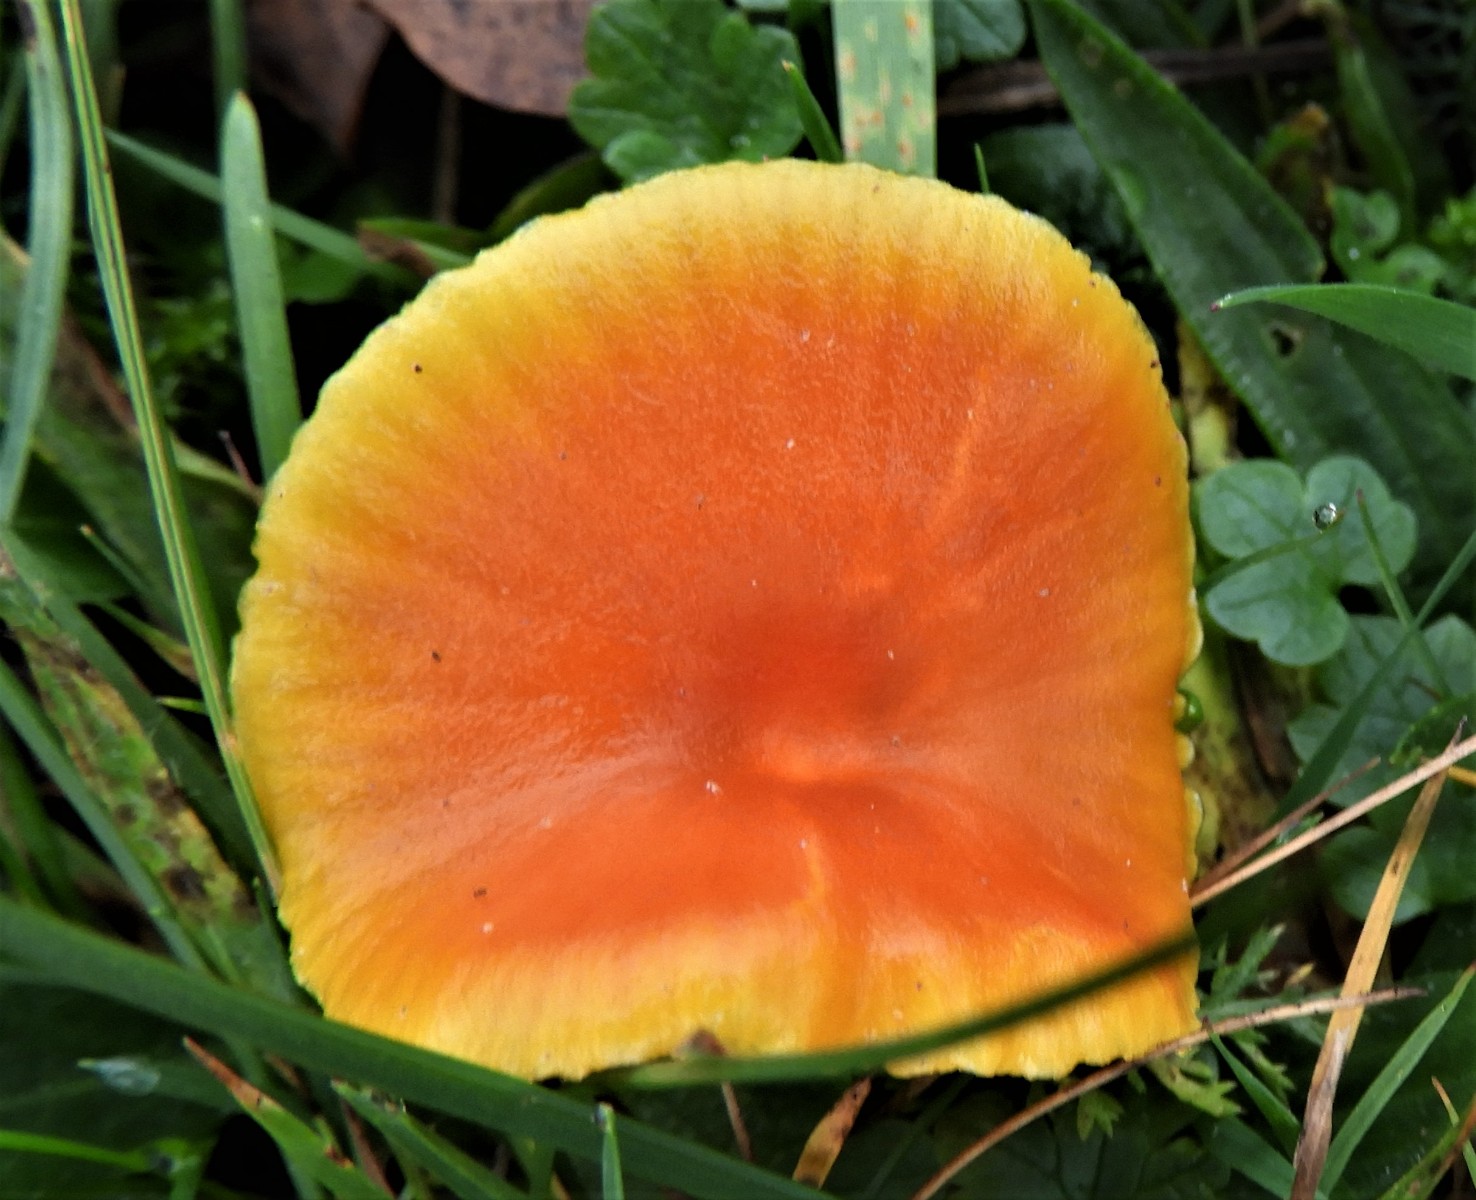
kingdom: Fungi
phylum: Basidiomycota
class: Agaricomycetes
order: Agaricales
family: Hygrophoraceae
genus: Hygrocybe
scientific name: Hygrocybe miniata
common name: mønje-vokshat
